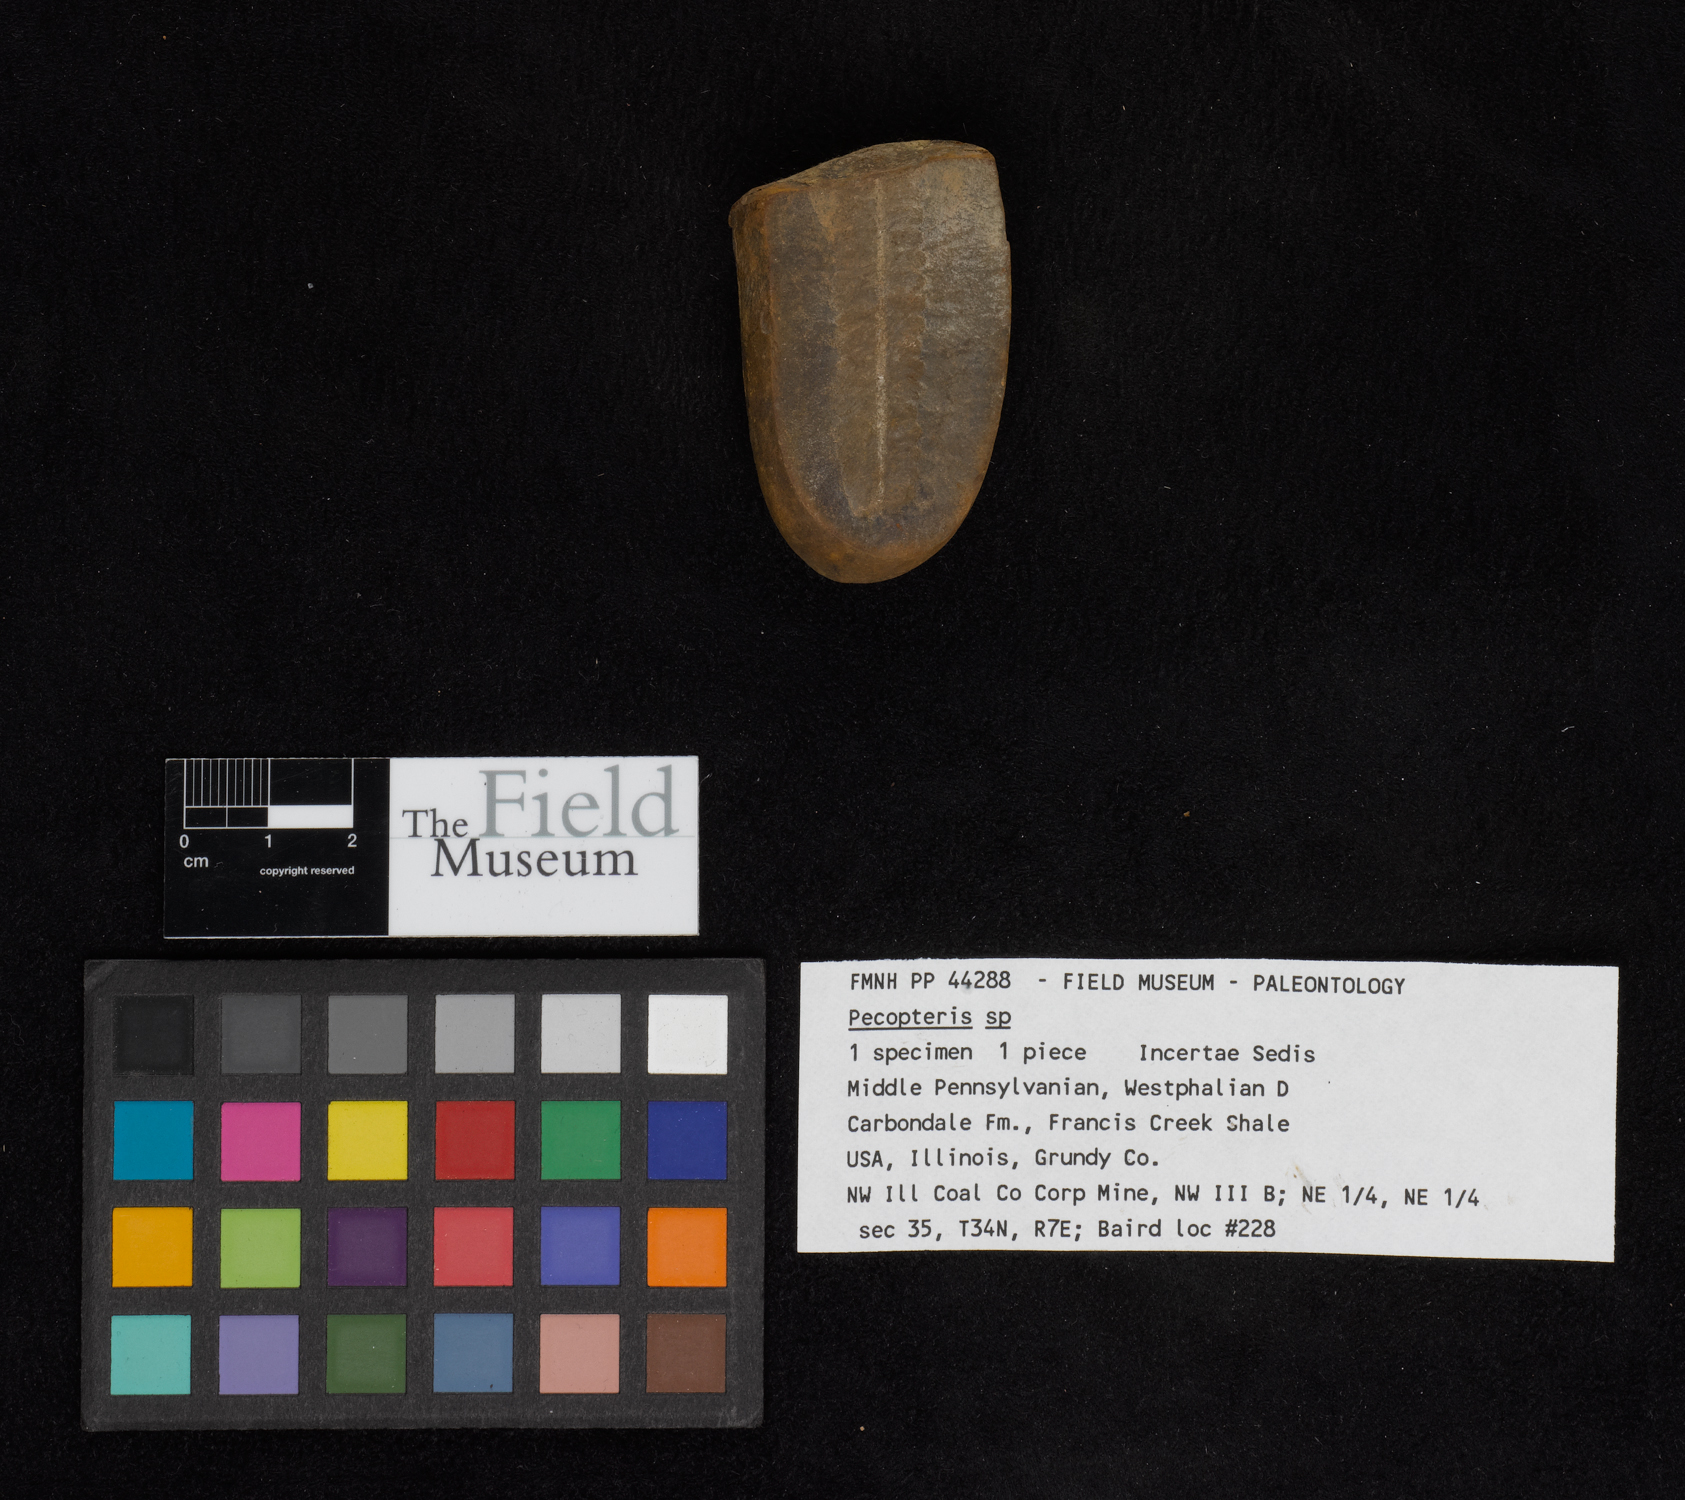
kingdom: Plantae
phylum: Tracheophyta
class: Polypodiopsida
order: Marattiales
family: Asterothecaceae
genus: Pecopteris
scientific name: Pecopteris
